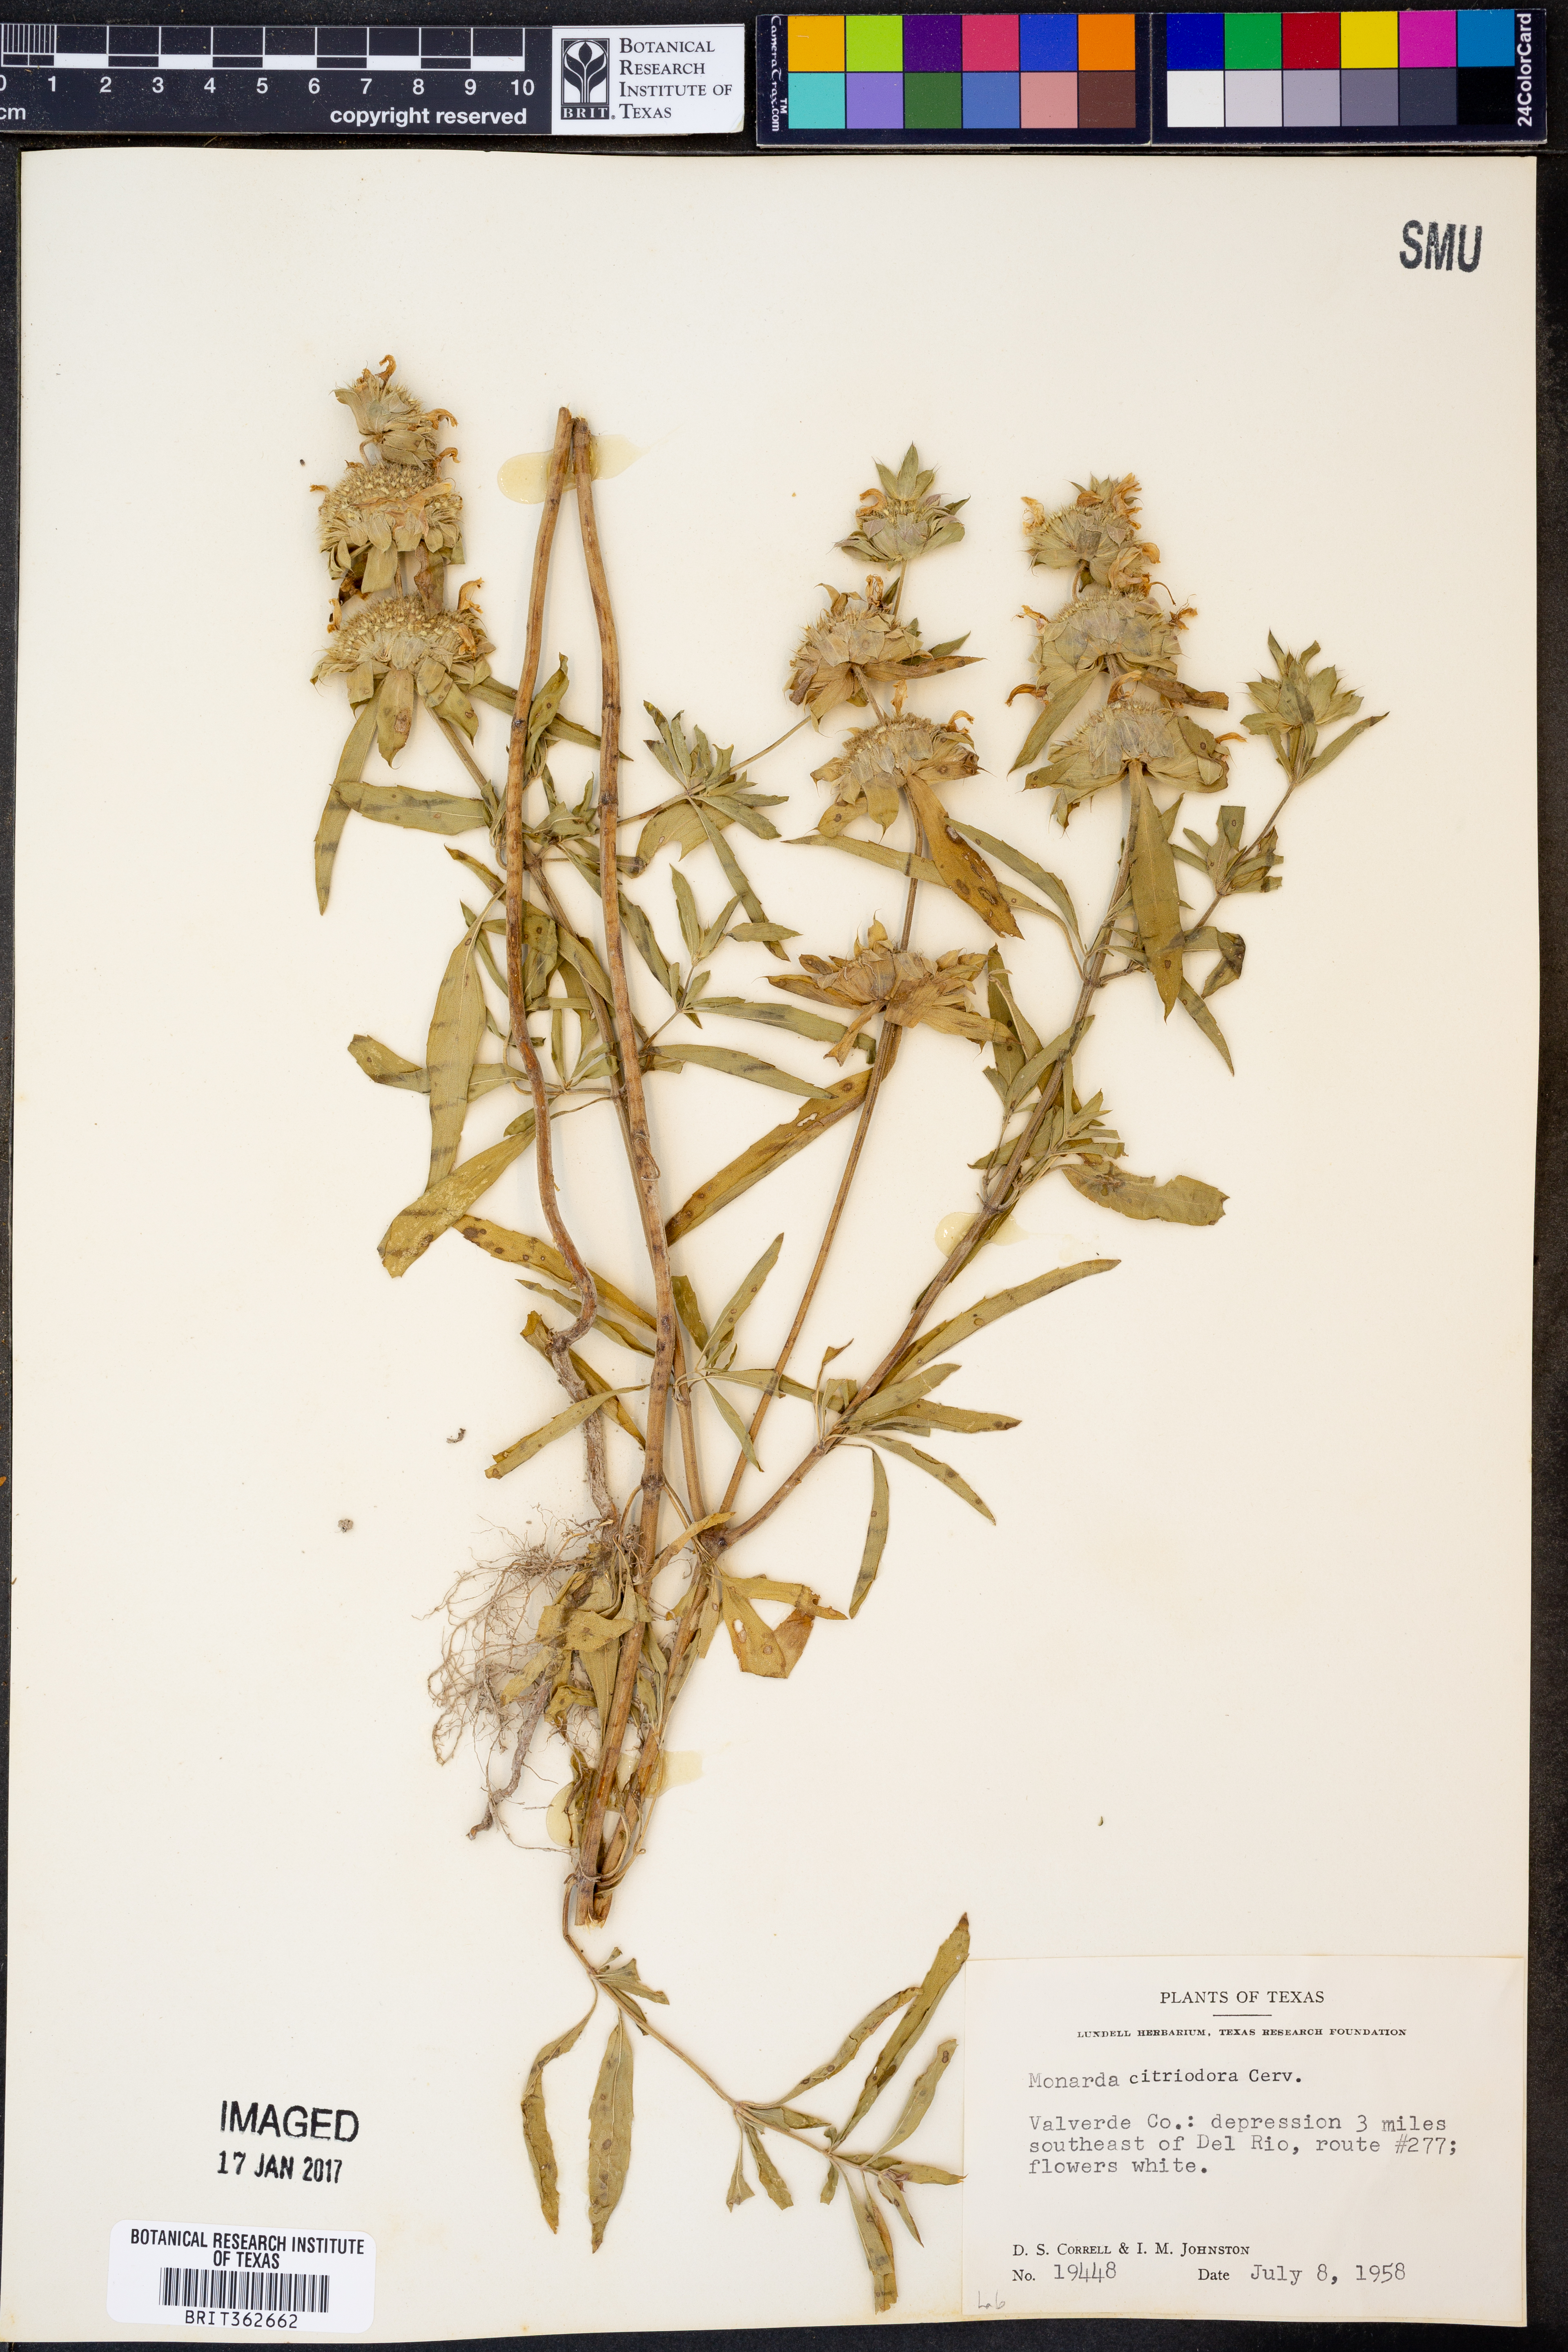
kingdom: Plantae
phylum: Tracheophyta
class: Magnoliopsida
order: Lamiales
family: Lamiaceae
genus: Monarda
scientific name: Monarda citriodora
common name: Lemon beebalm
